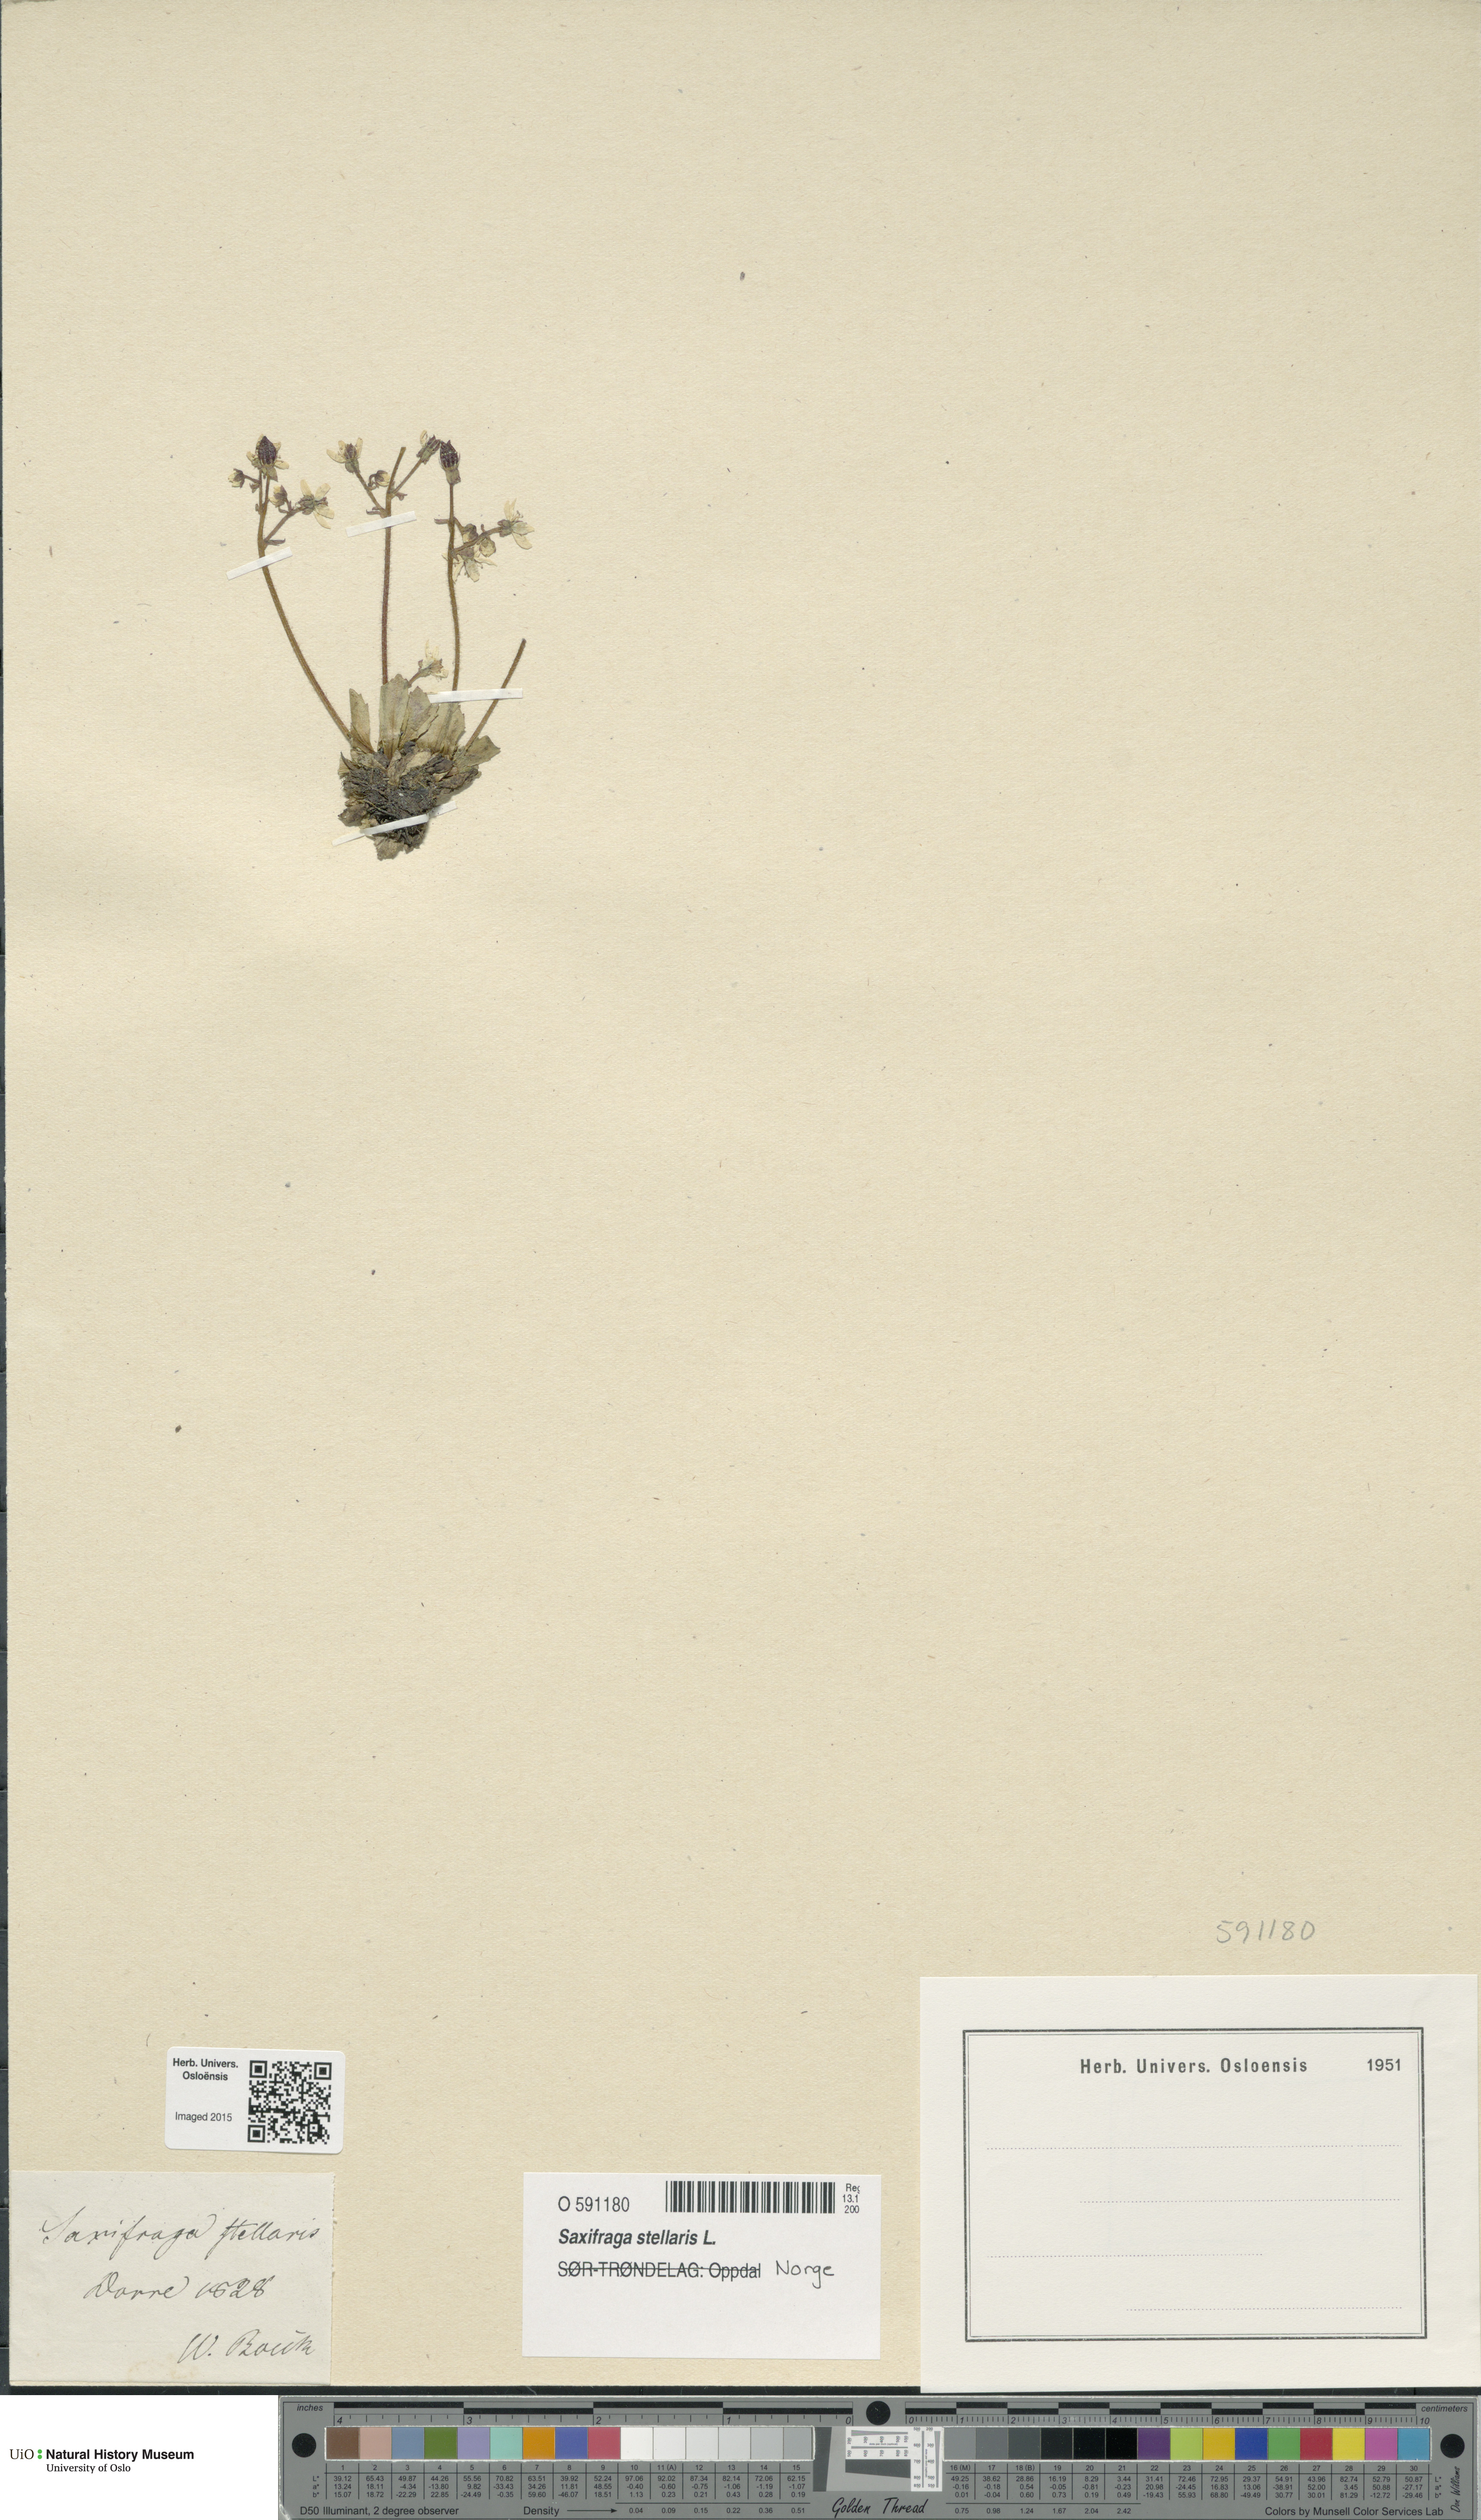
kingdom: Plantae
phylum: Tracheophyta
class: Magnoliopsida
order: Saxifragales
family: Saxifragaceae
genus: Micranthes
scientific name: Micranthes stellaris
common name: Starry saxifrage
